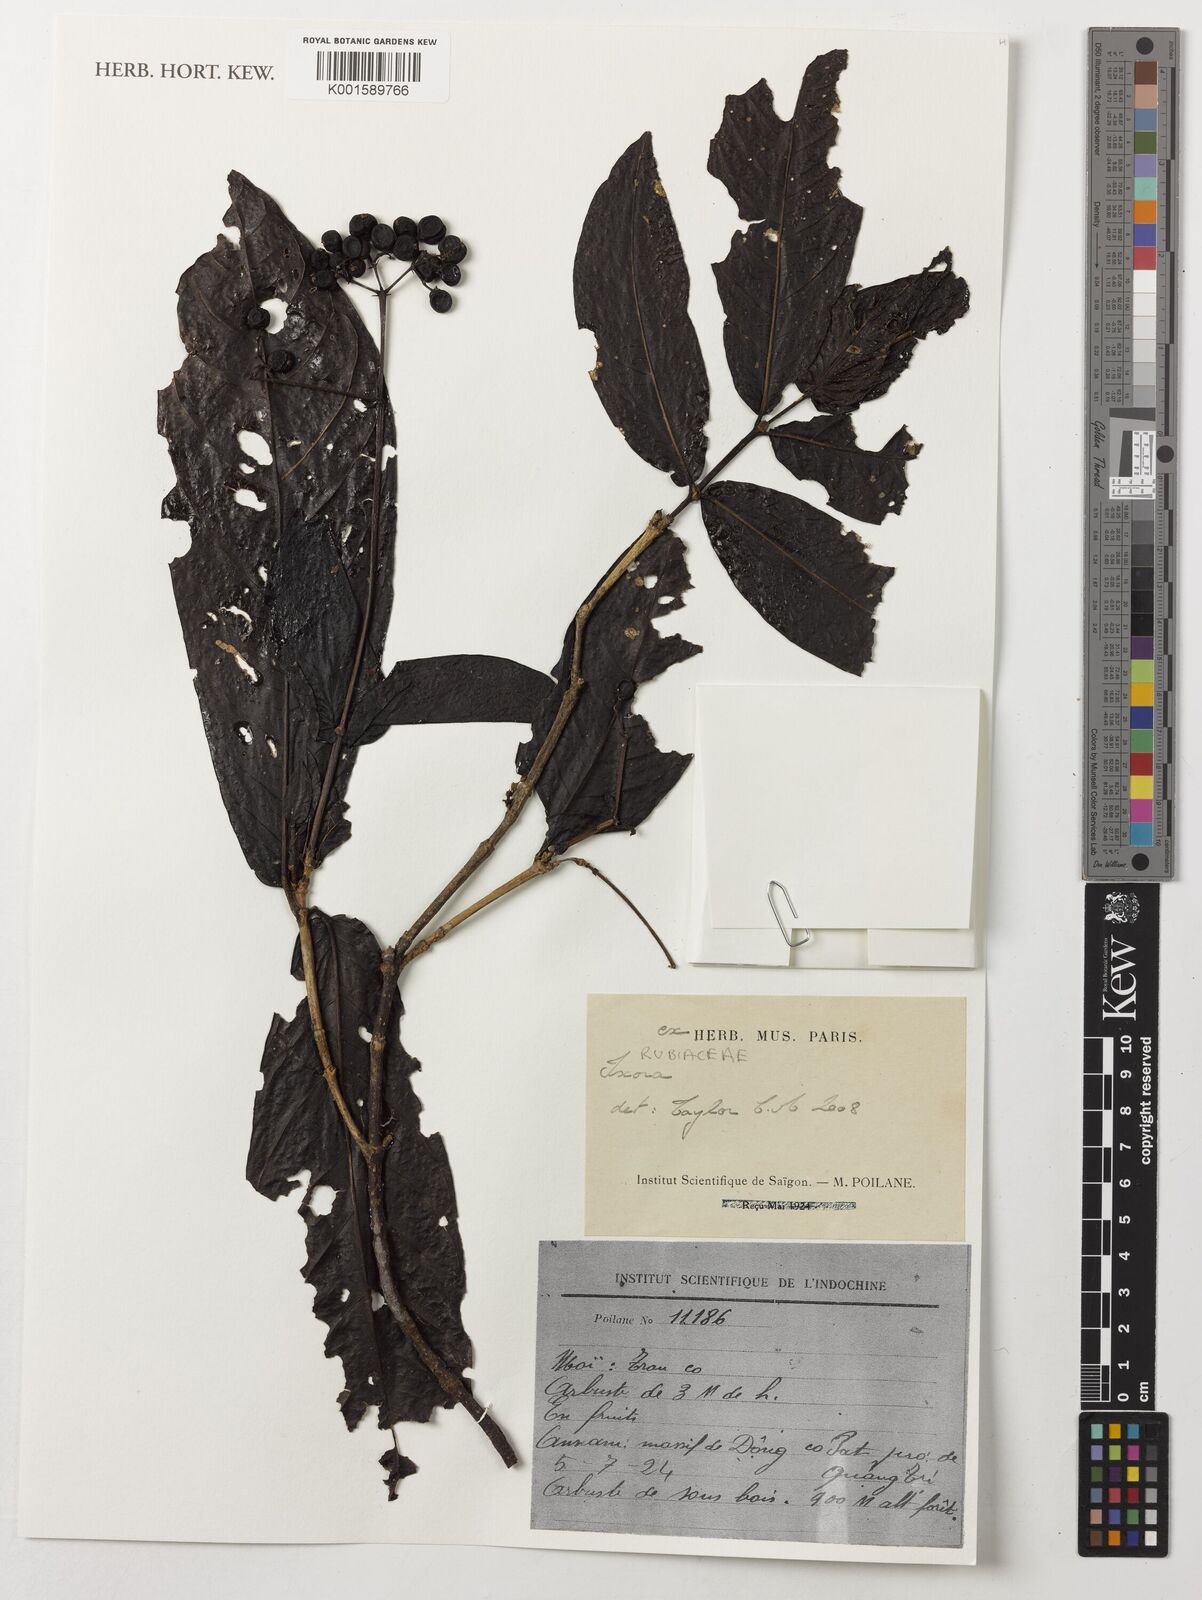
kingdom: Plantae
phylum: Tracheophyta
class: Magnoliopsida
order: Gentianales
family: Rubiaceae
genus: Ixora
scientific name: Ixora
